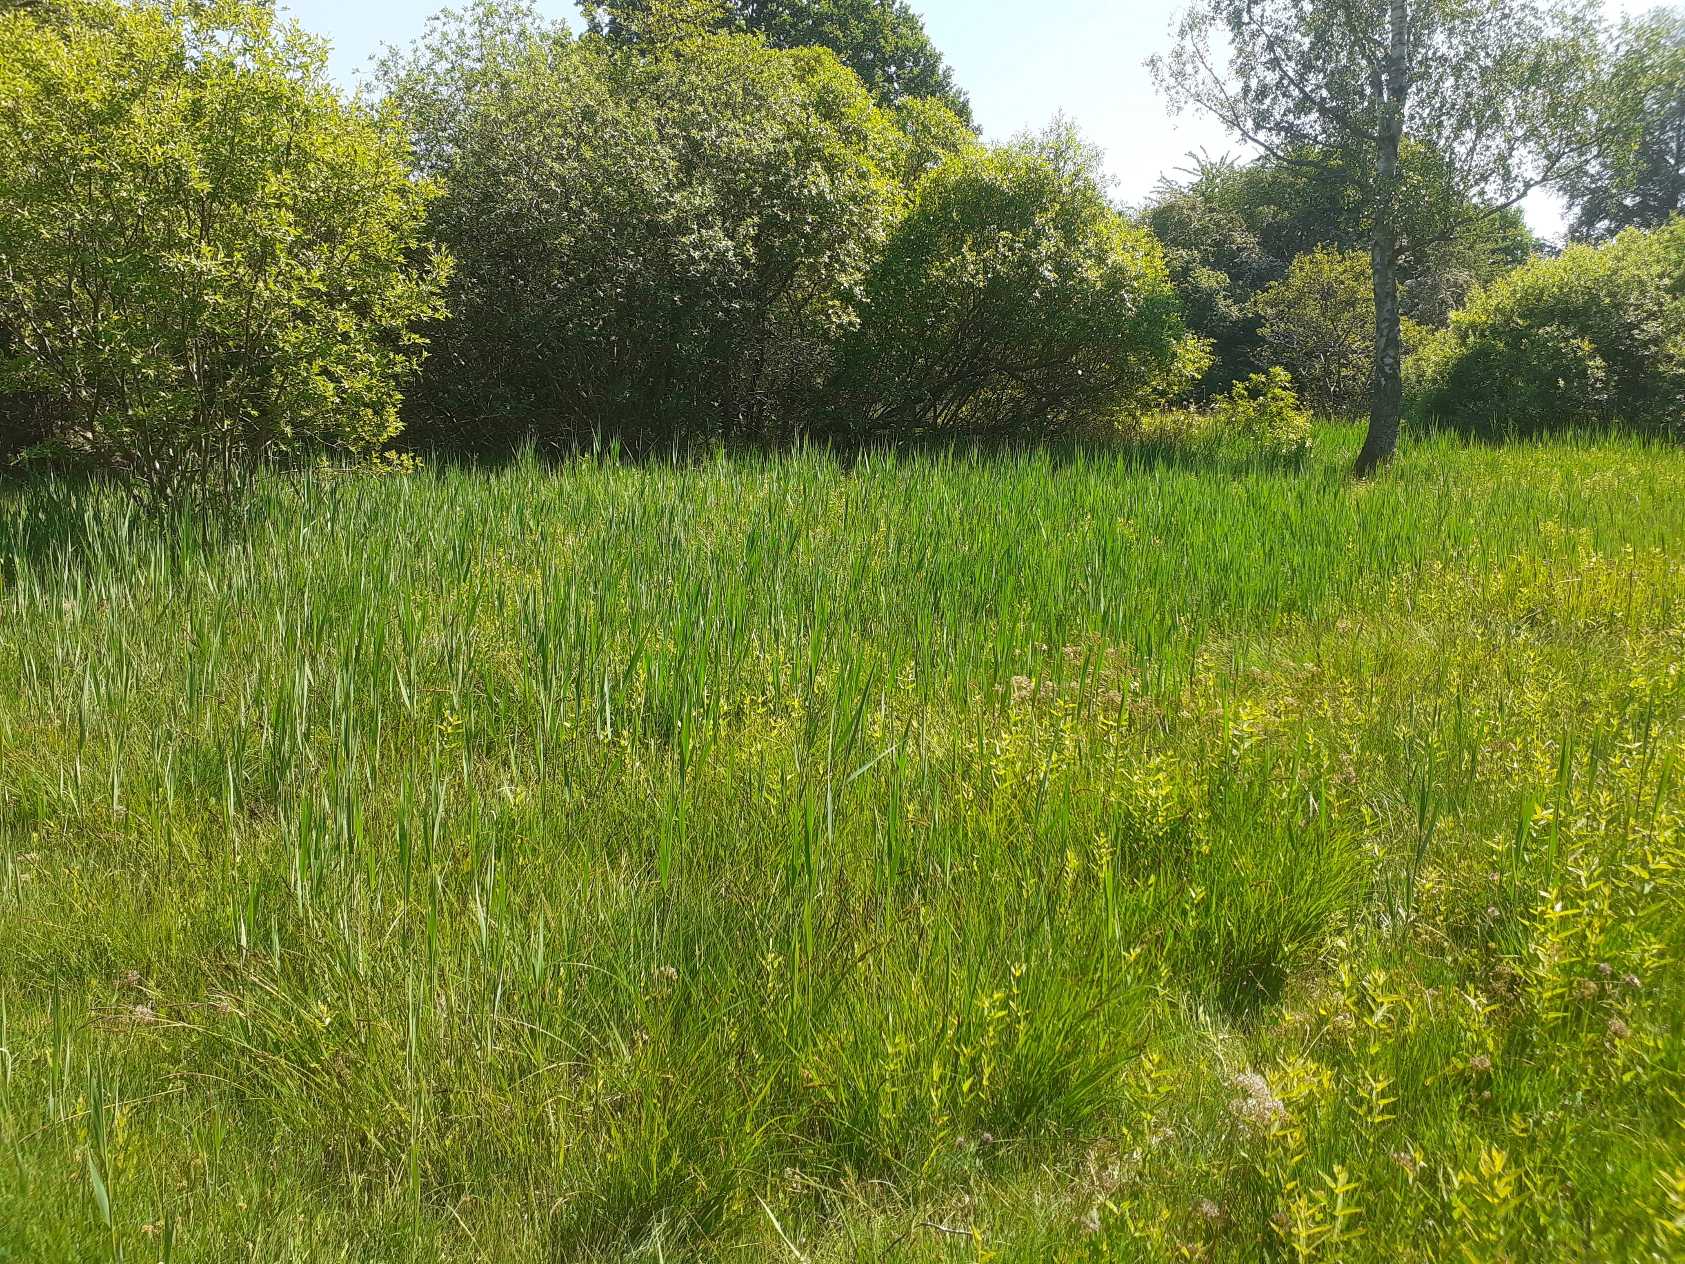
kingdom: Plantae
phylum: Tracheophyta
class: Liliopsida
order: Poales
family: Poaceae
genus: Phragmites
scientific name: Phragmites australis
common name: Tagrør
